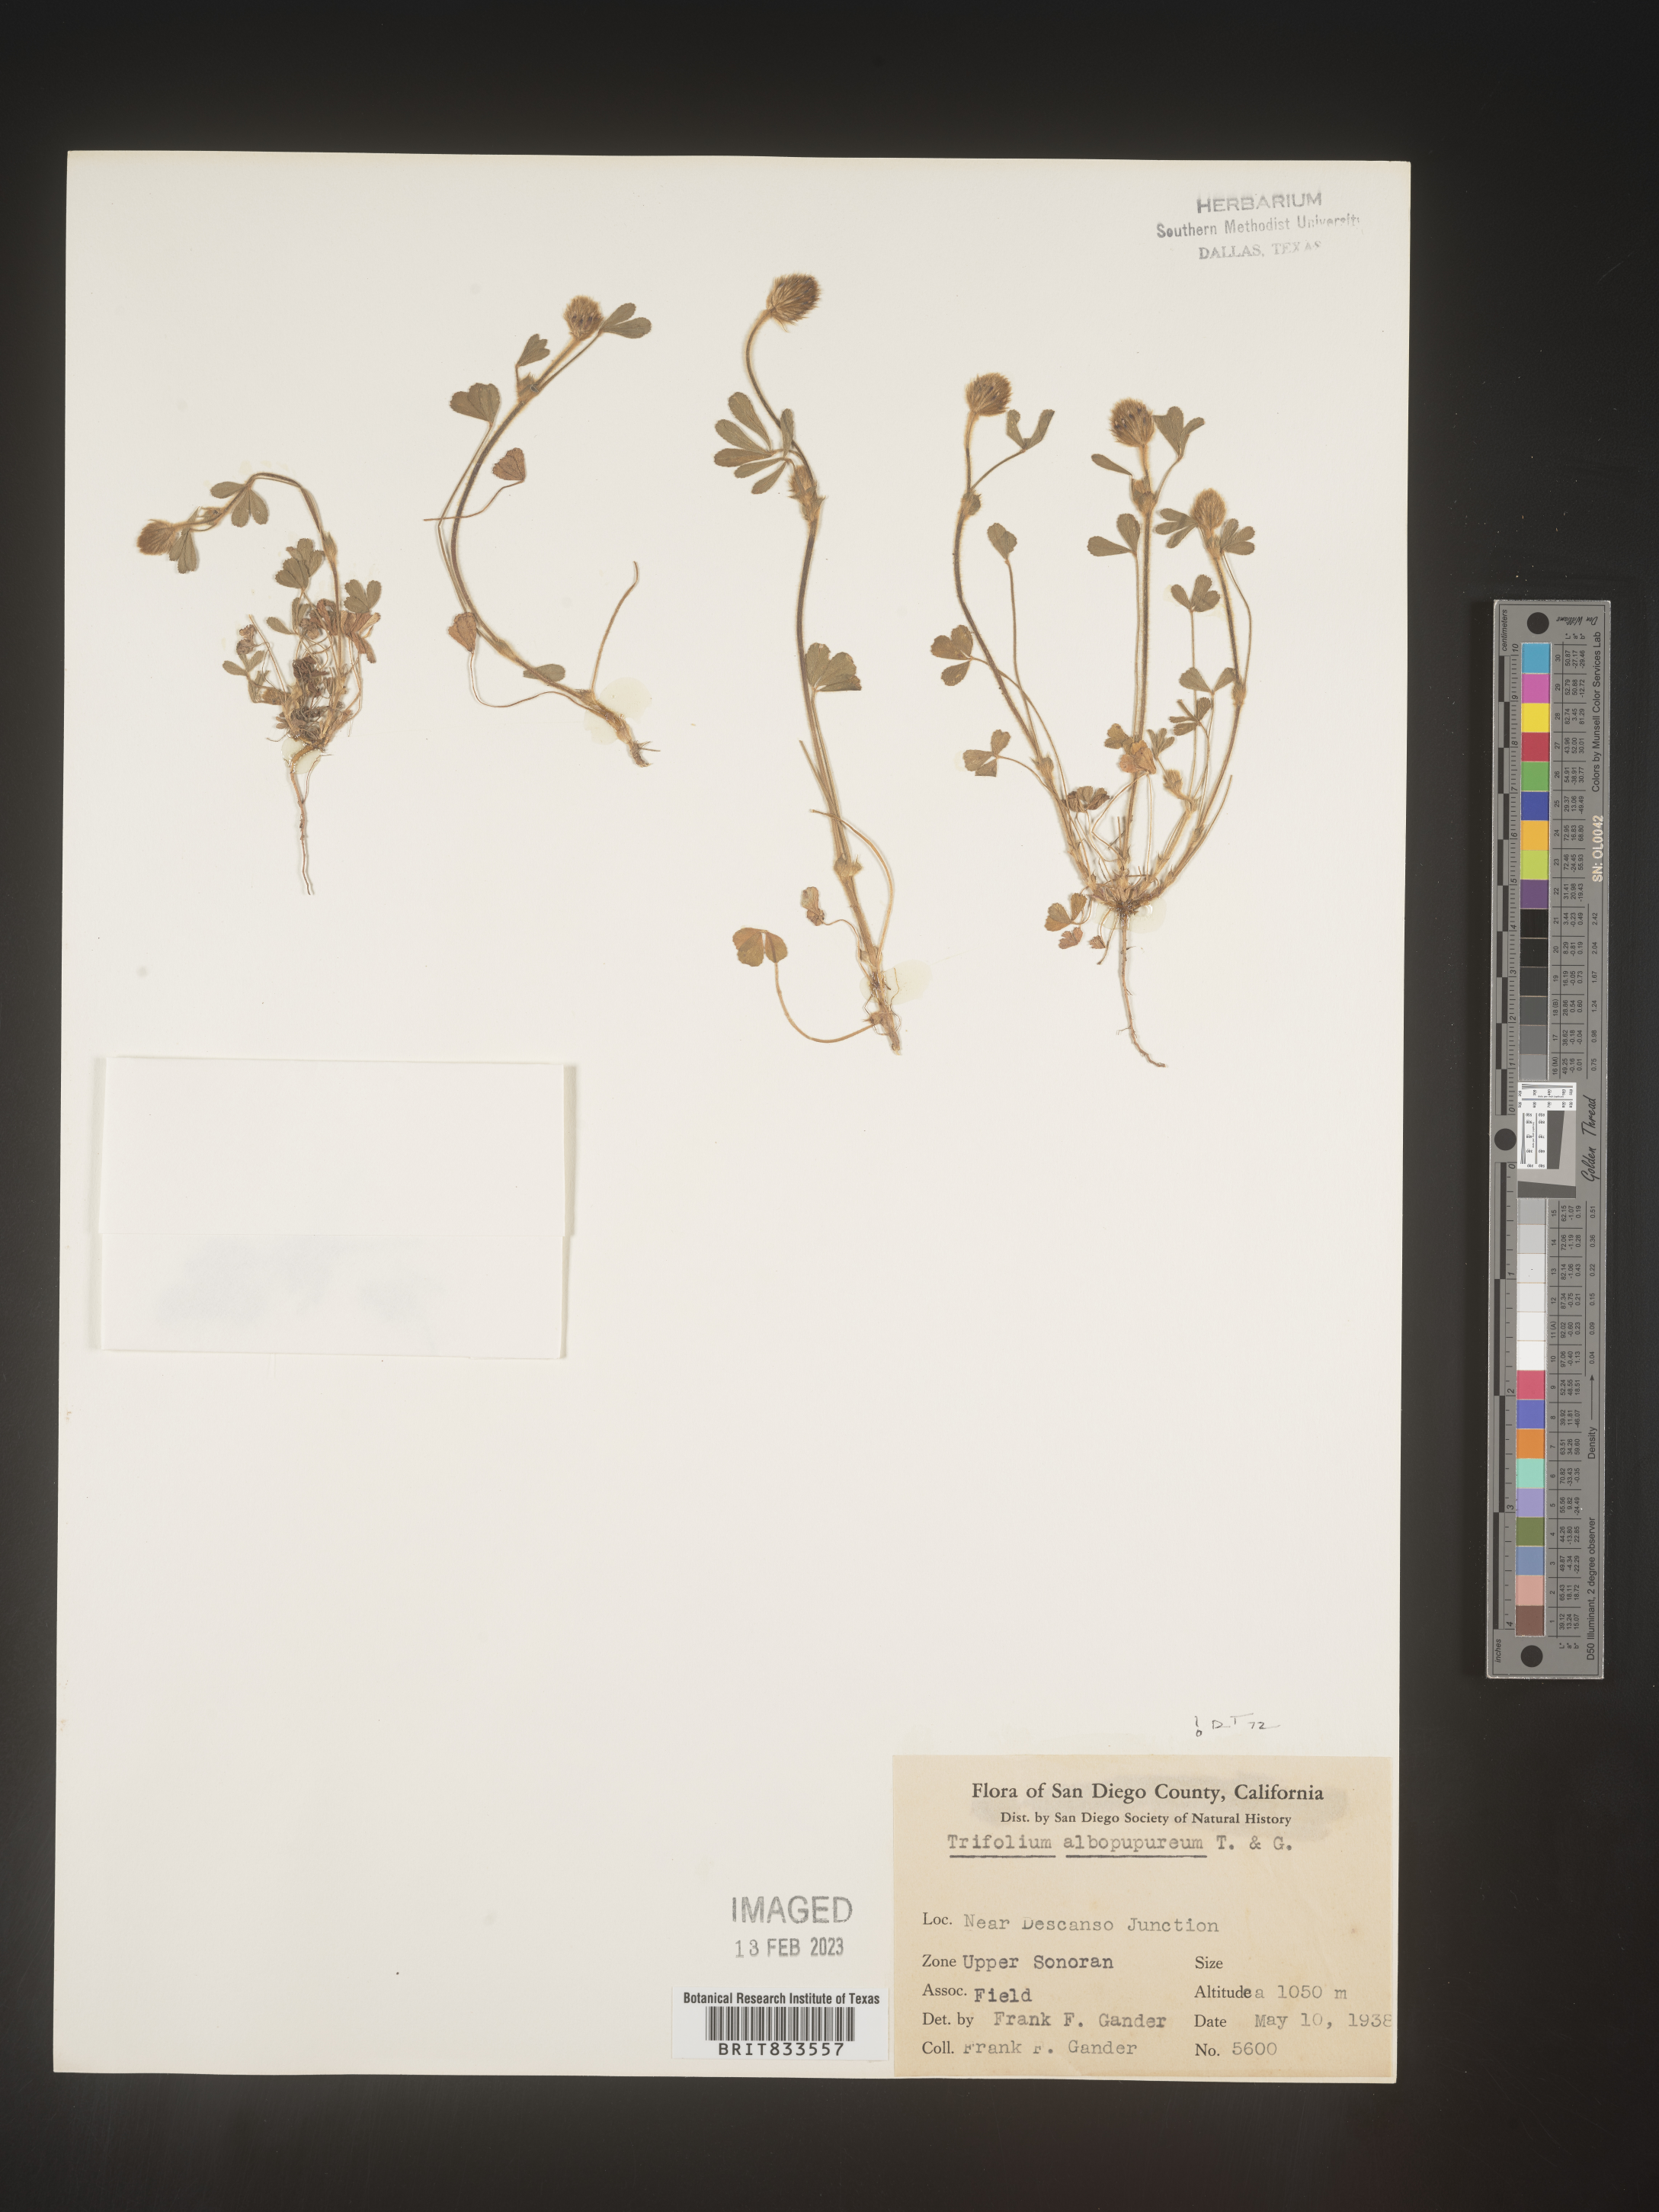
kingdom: Plantae
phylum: Tracheophyta
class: Magnoliopsida
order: Fabales
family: Fabaceae
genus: Trifolium
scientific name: Trifolium
